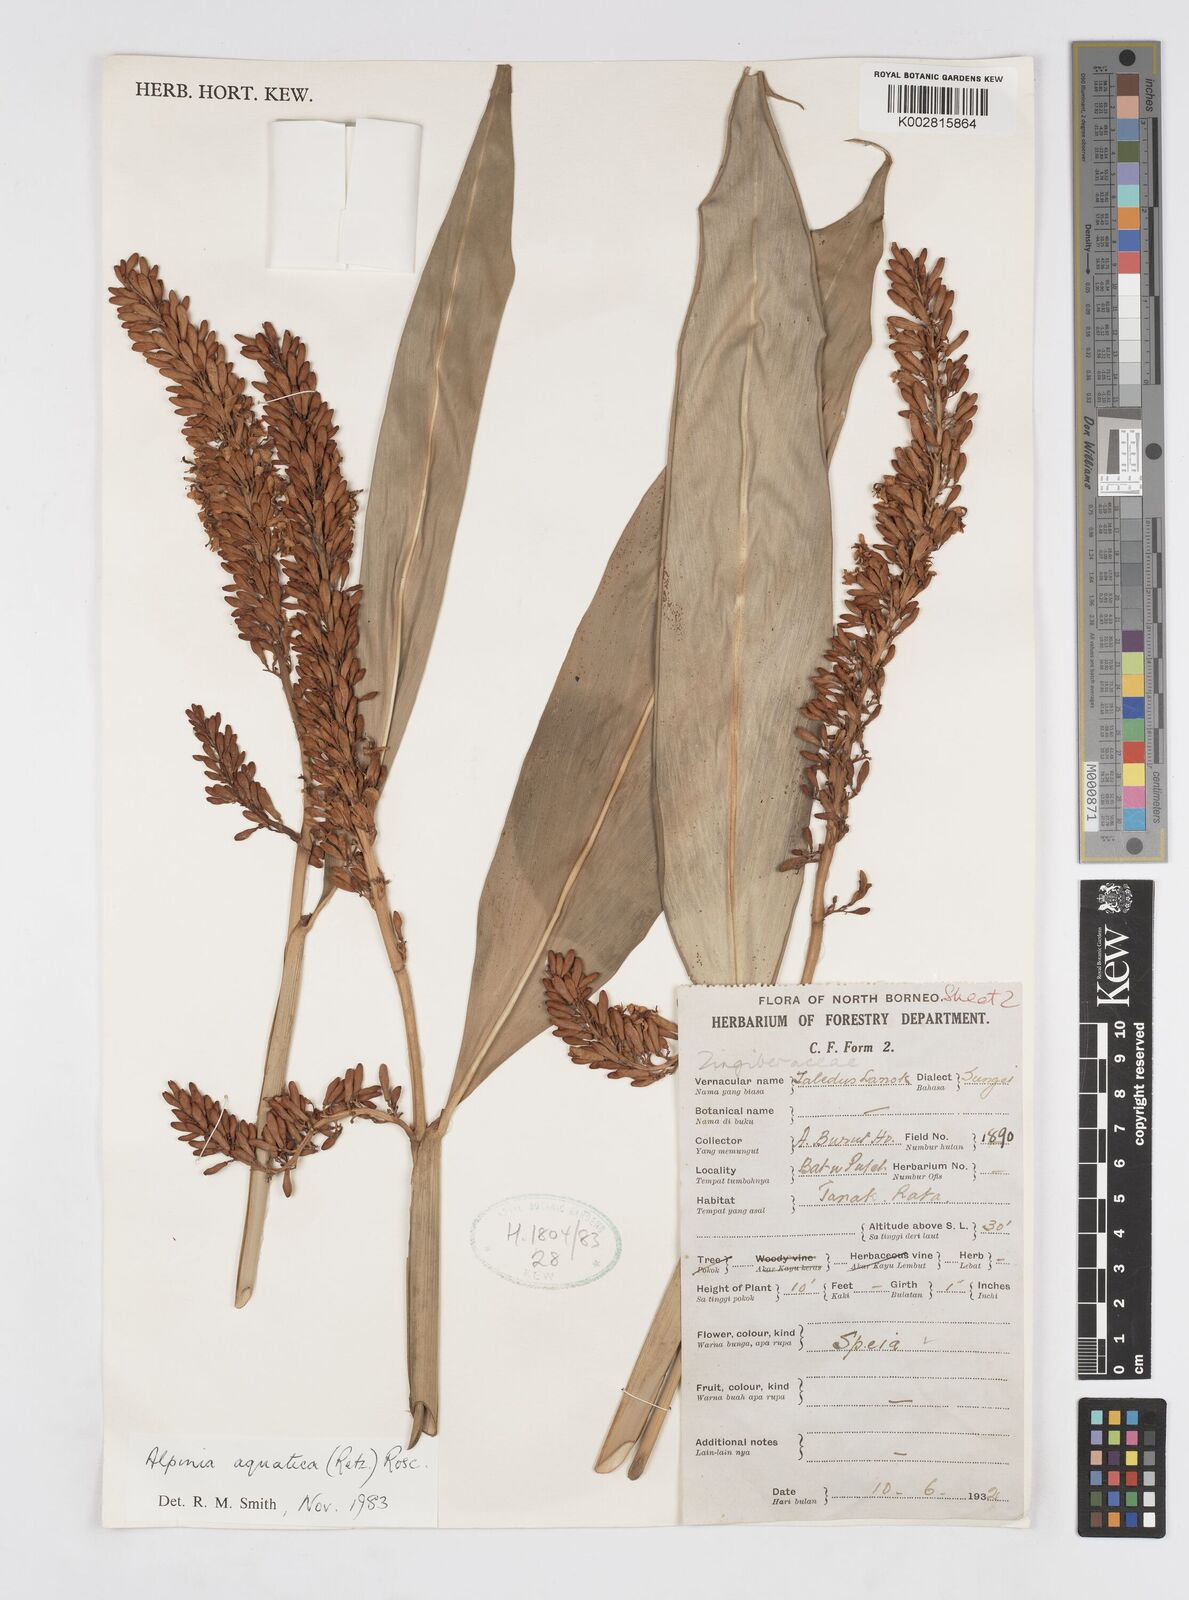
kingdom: Plantae
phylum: Tracheophyta
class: Liliopsida
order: Zingiberales
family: Zingiberaceae
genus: Alpinia
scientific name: Alpinia aquatica
